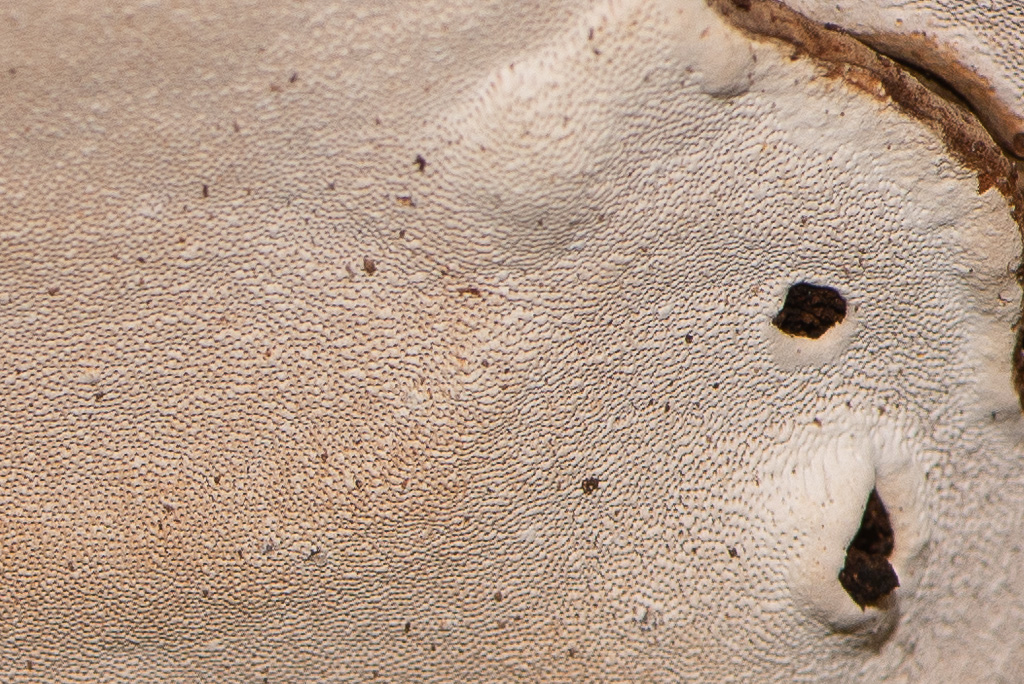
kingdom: Fungi
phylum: Basidiomycota
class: Agaricomycetes
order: Polyporales
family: Polyporaceae
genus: Ganoderma
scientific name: Ganoderma applanatum
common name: flad lakporesvamp
